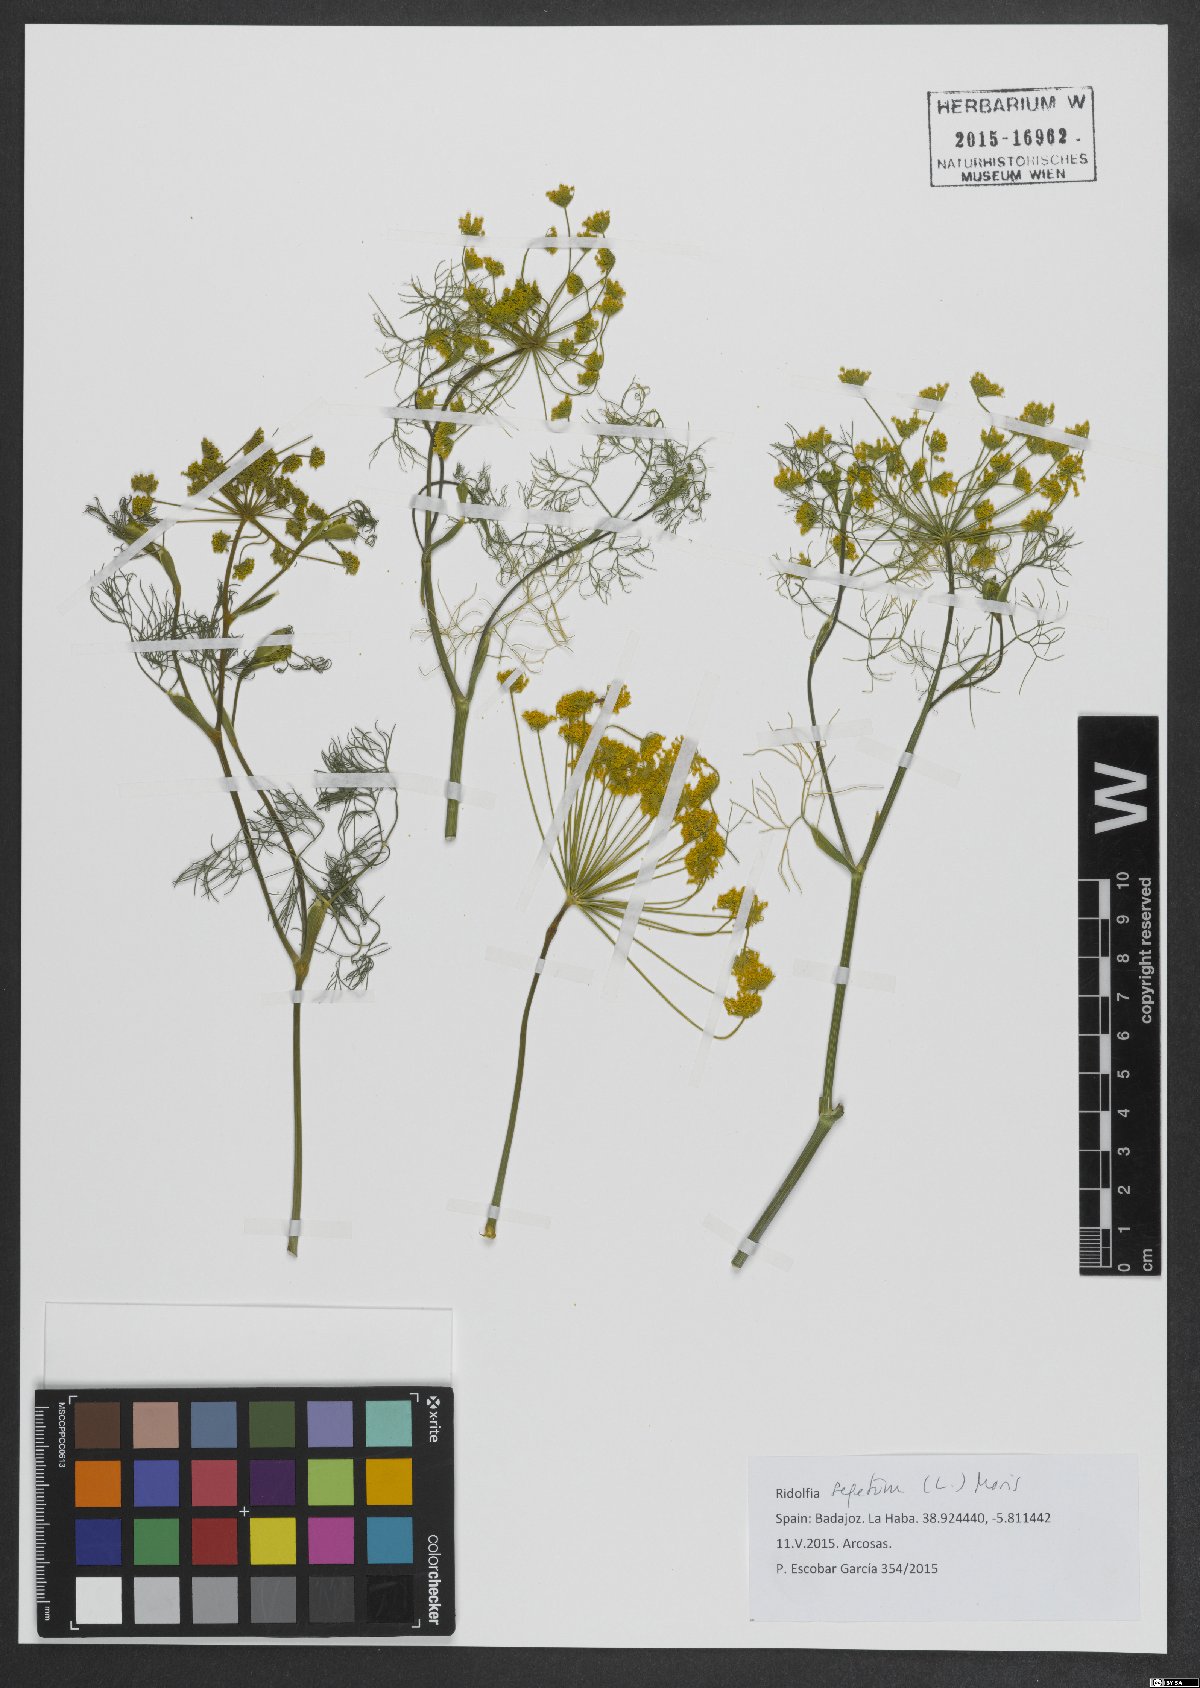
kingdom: Plantae
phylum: Tracheophyta
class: Magnoliopsida
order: Apiales
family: Apiaceae
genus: Anethum
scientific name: Anethum ridolfia
